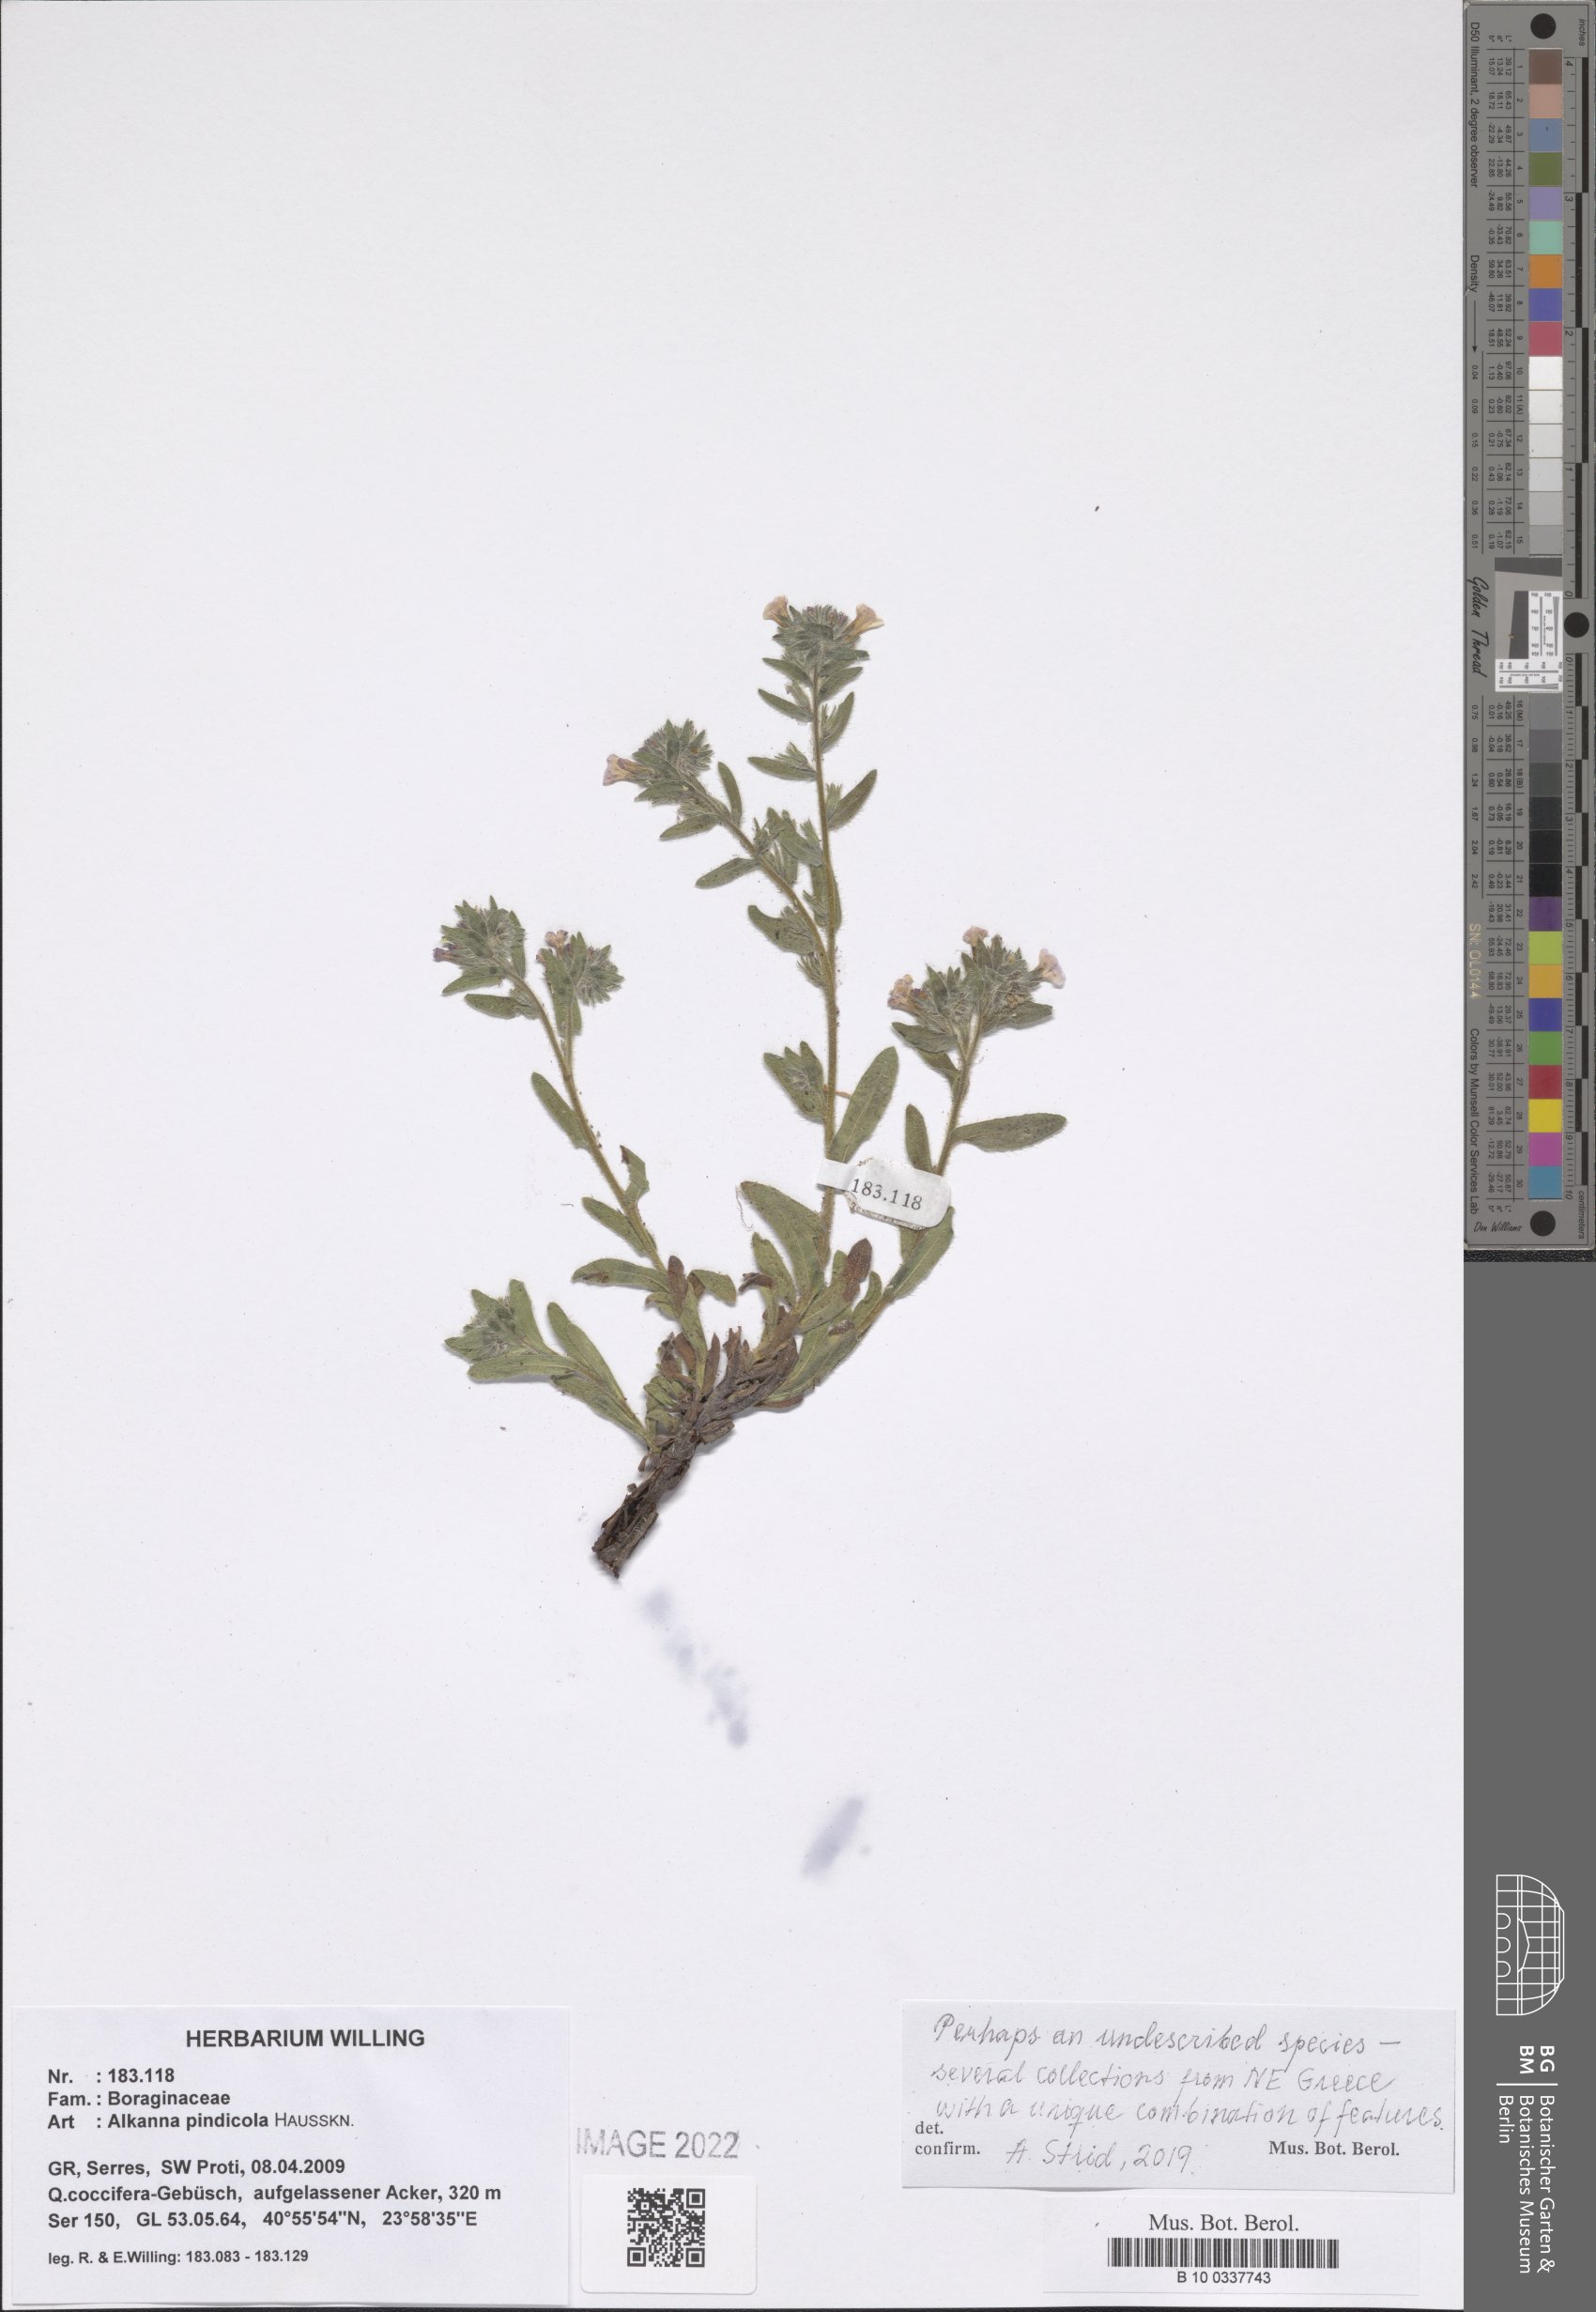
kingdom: Plantae
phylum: Tracheophyta
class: Magnoliopsida
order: Boraginales
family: Boraginaceae
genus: Alkanna
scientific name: Alkanna pindicola
